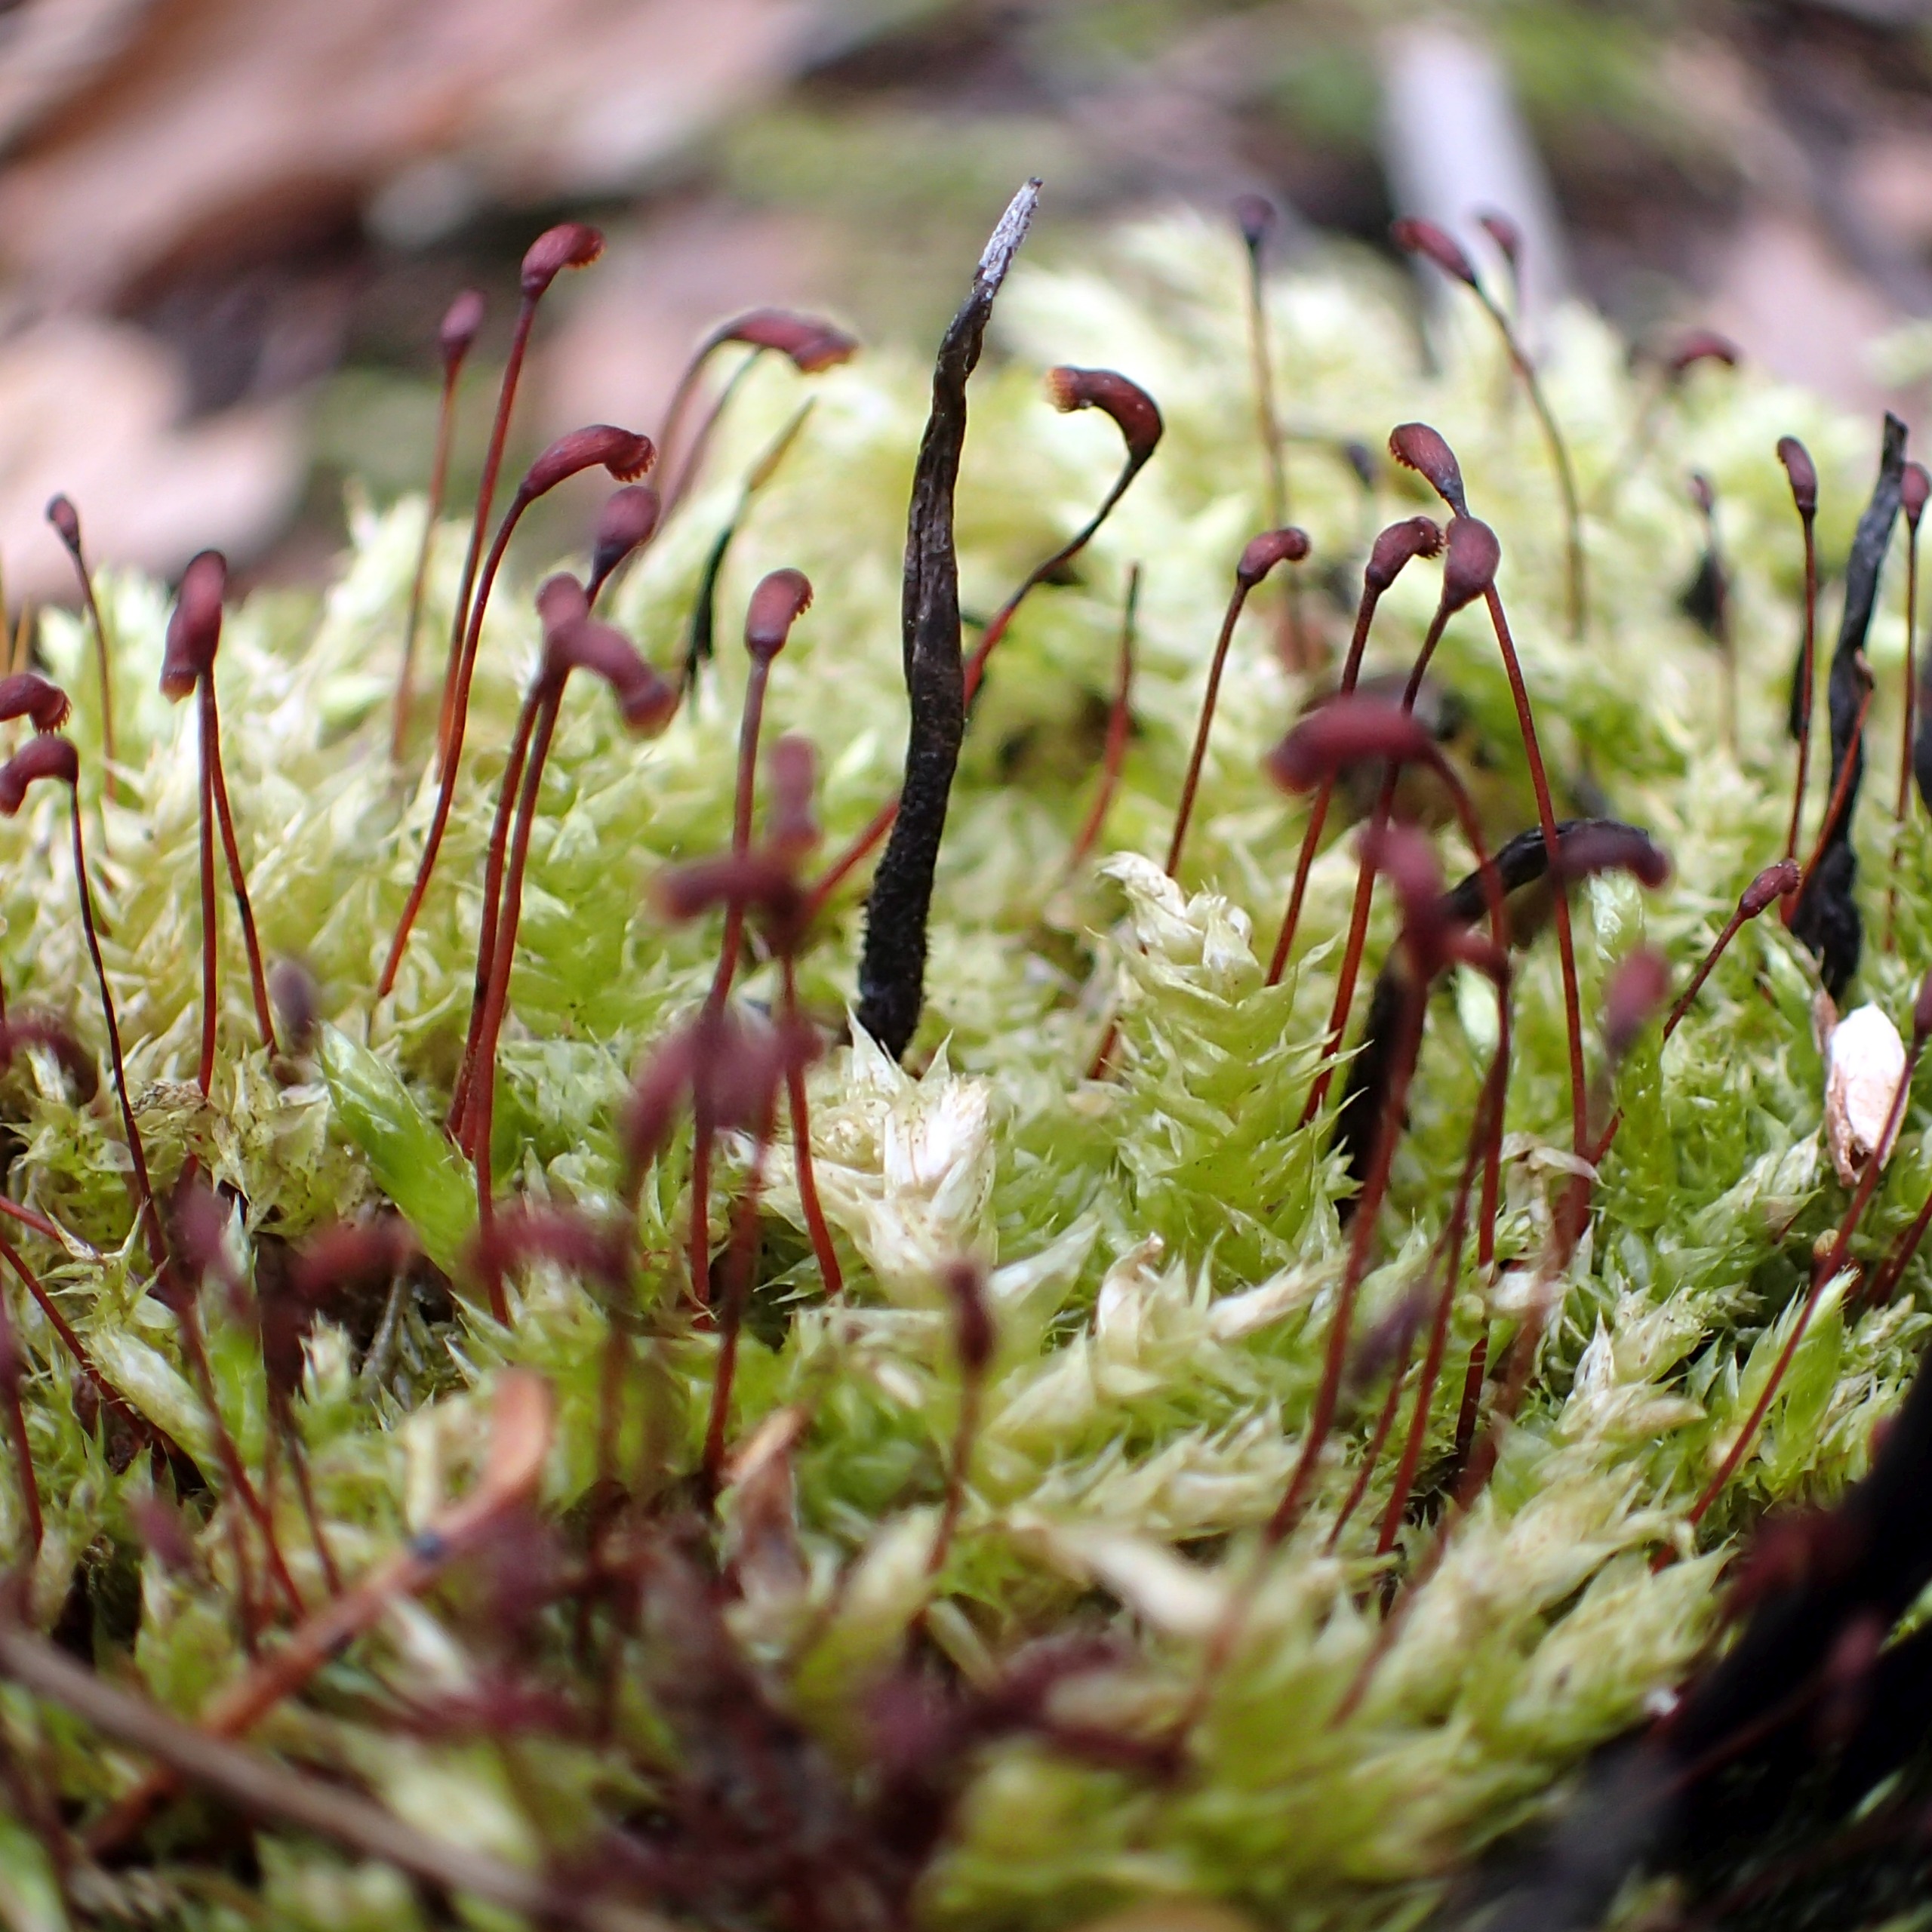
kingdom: Plantae
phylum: Bryophyta
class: Bryopsida
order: Hypnales
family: Brachytheciaceae
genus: Brachythecium
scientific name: Brachythecium rutabulum
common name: Almindelig kortkapsel
